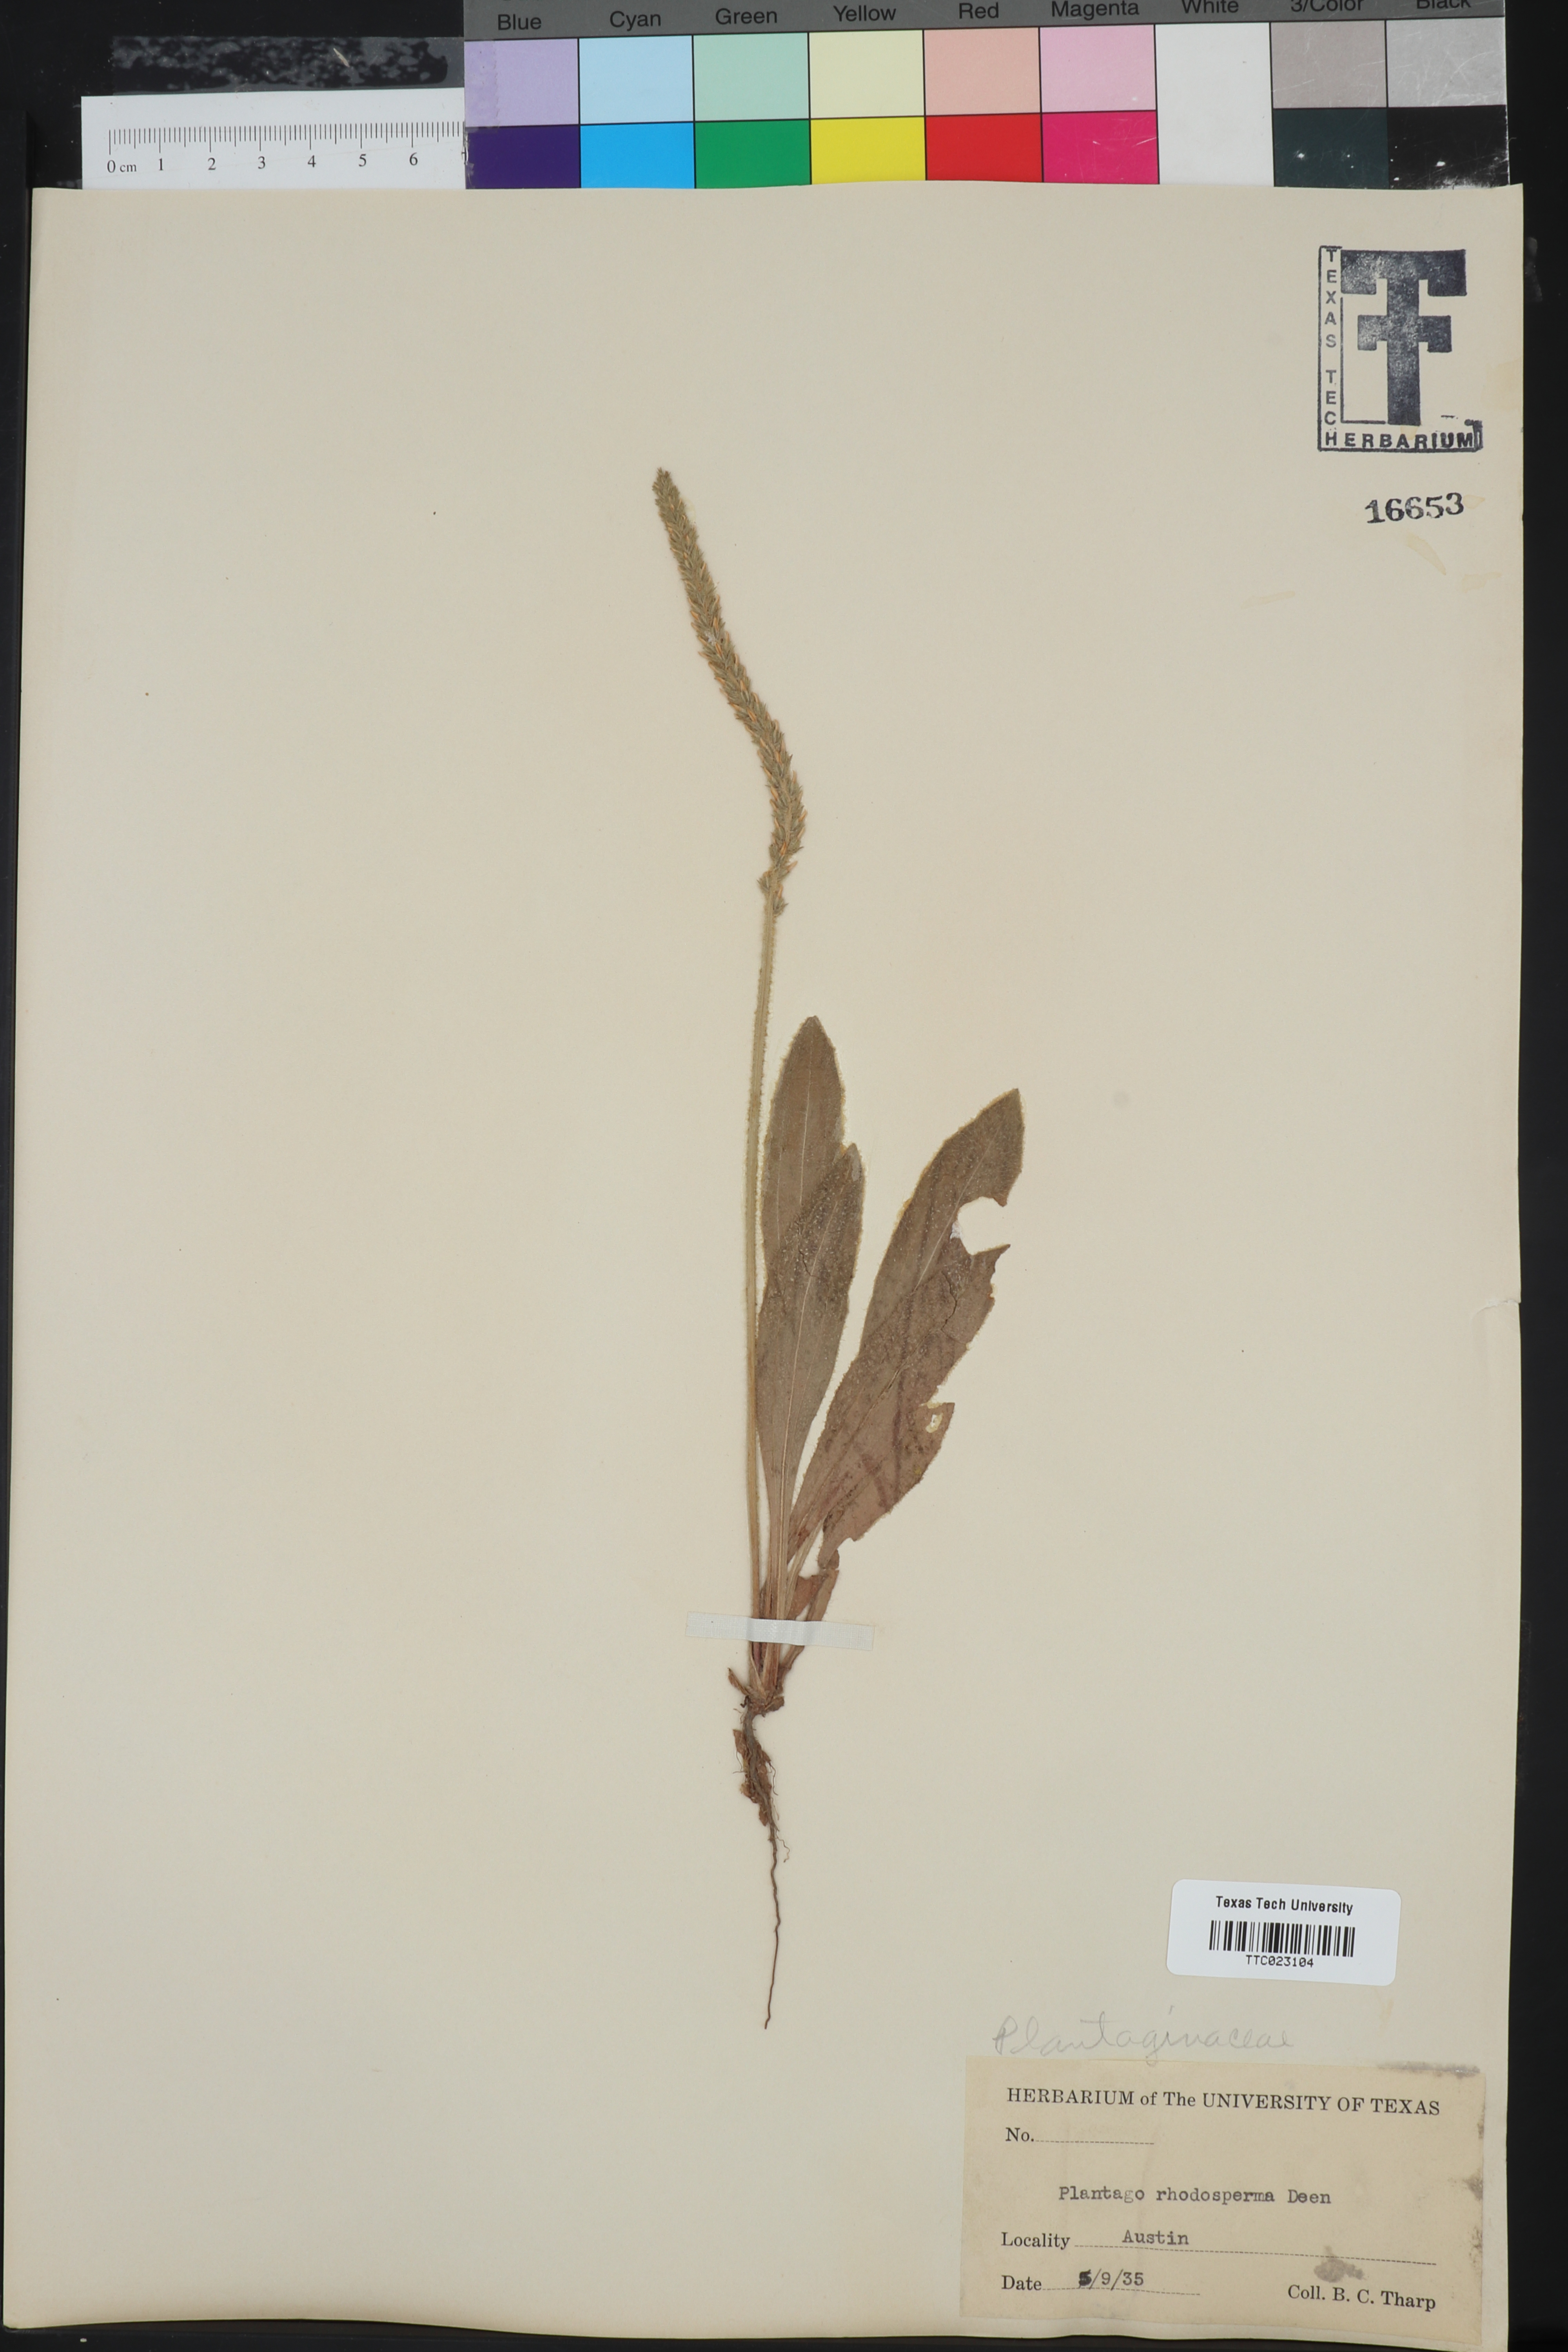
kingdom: Plantae
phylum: Tracheophyta
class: Magnoliopsida
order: Lamiales
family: Plantaginaceae
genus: Plantago
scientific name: Plantago rhodosperma
